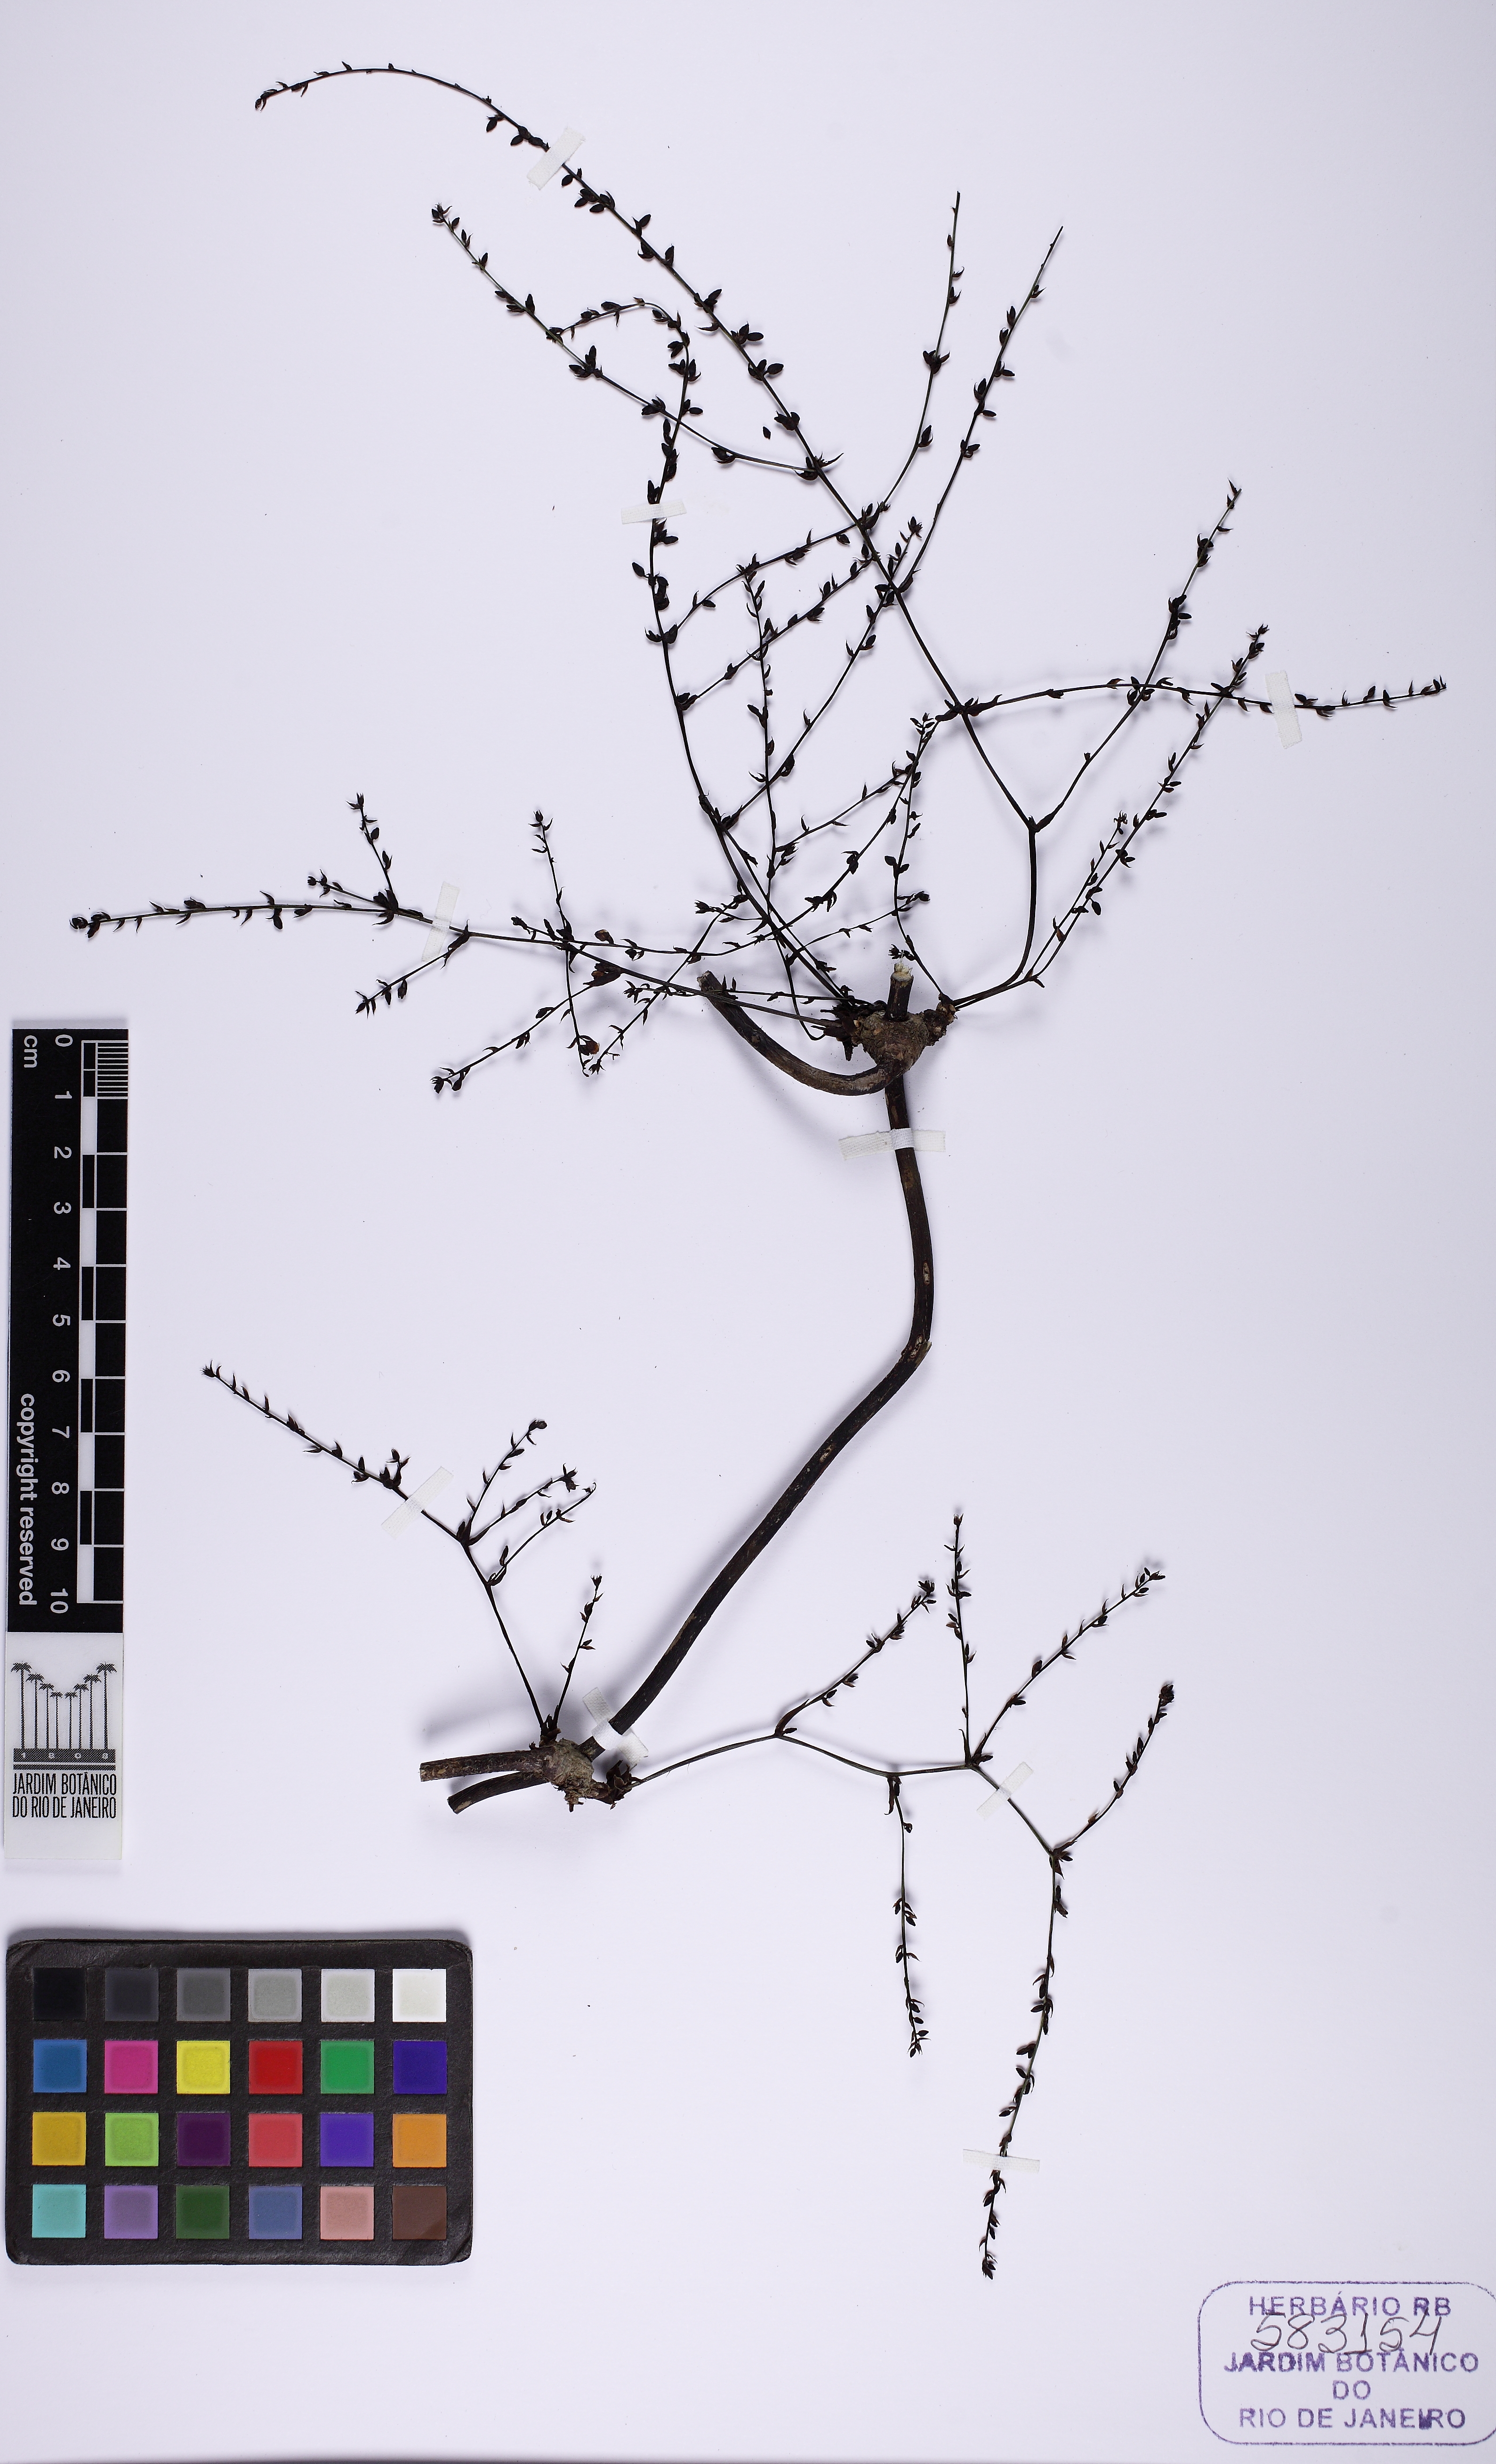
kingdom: Plantae
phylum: Tracheophyta
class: Liliopsida
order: Asparagales
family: Asparagaceae
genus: Herreria
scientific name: Herreria glaziovii
